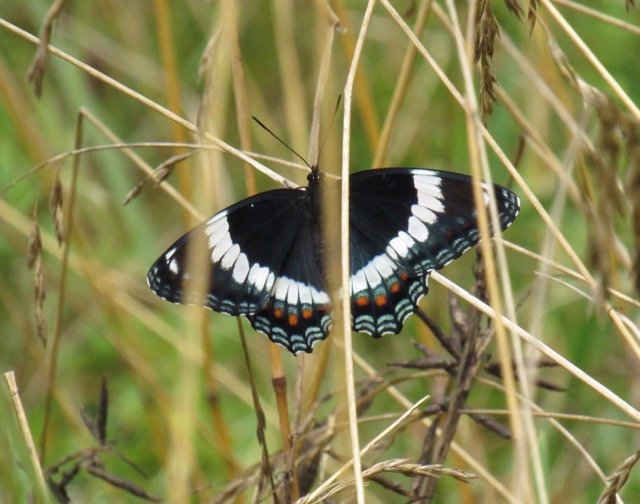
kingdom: Animalia
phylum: Arthropoda
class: Insecta
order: Lepidoptera
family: Nymphalidae
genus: Limenitis
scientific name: Limenitis
